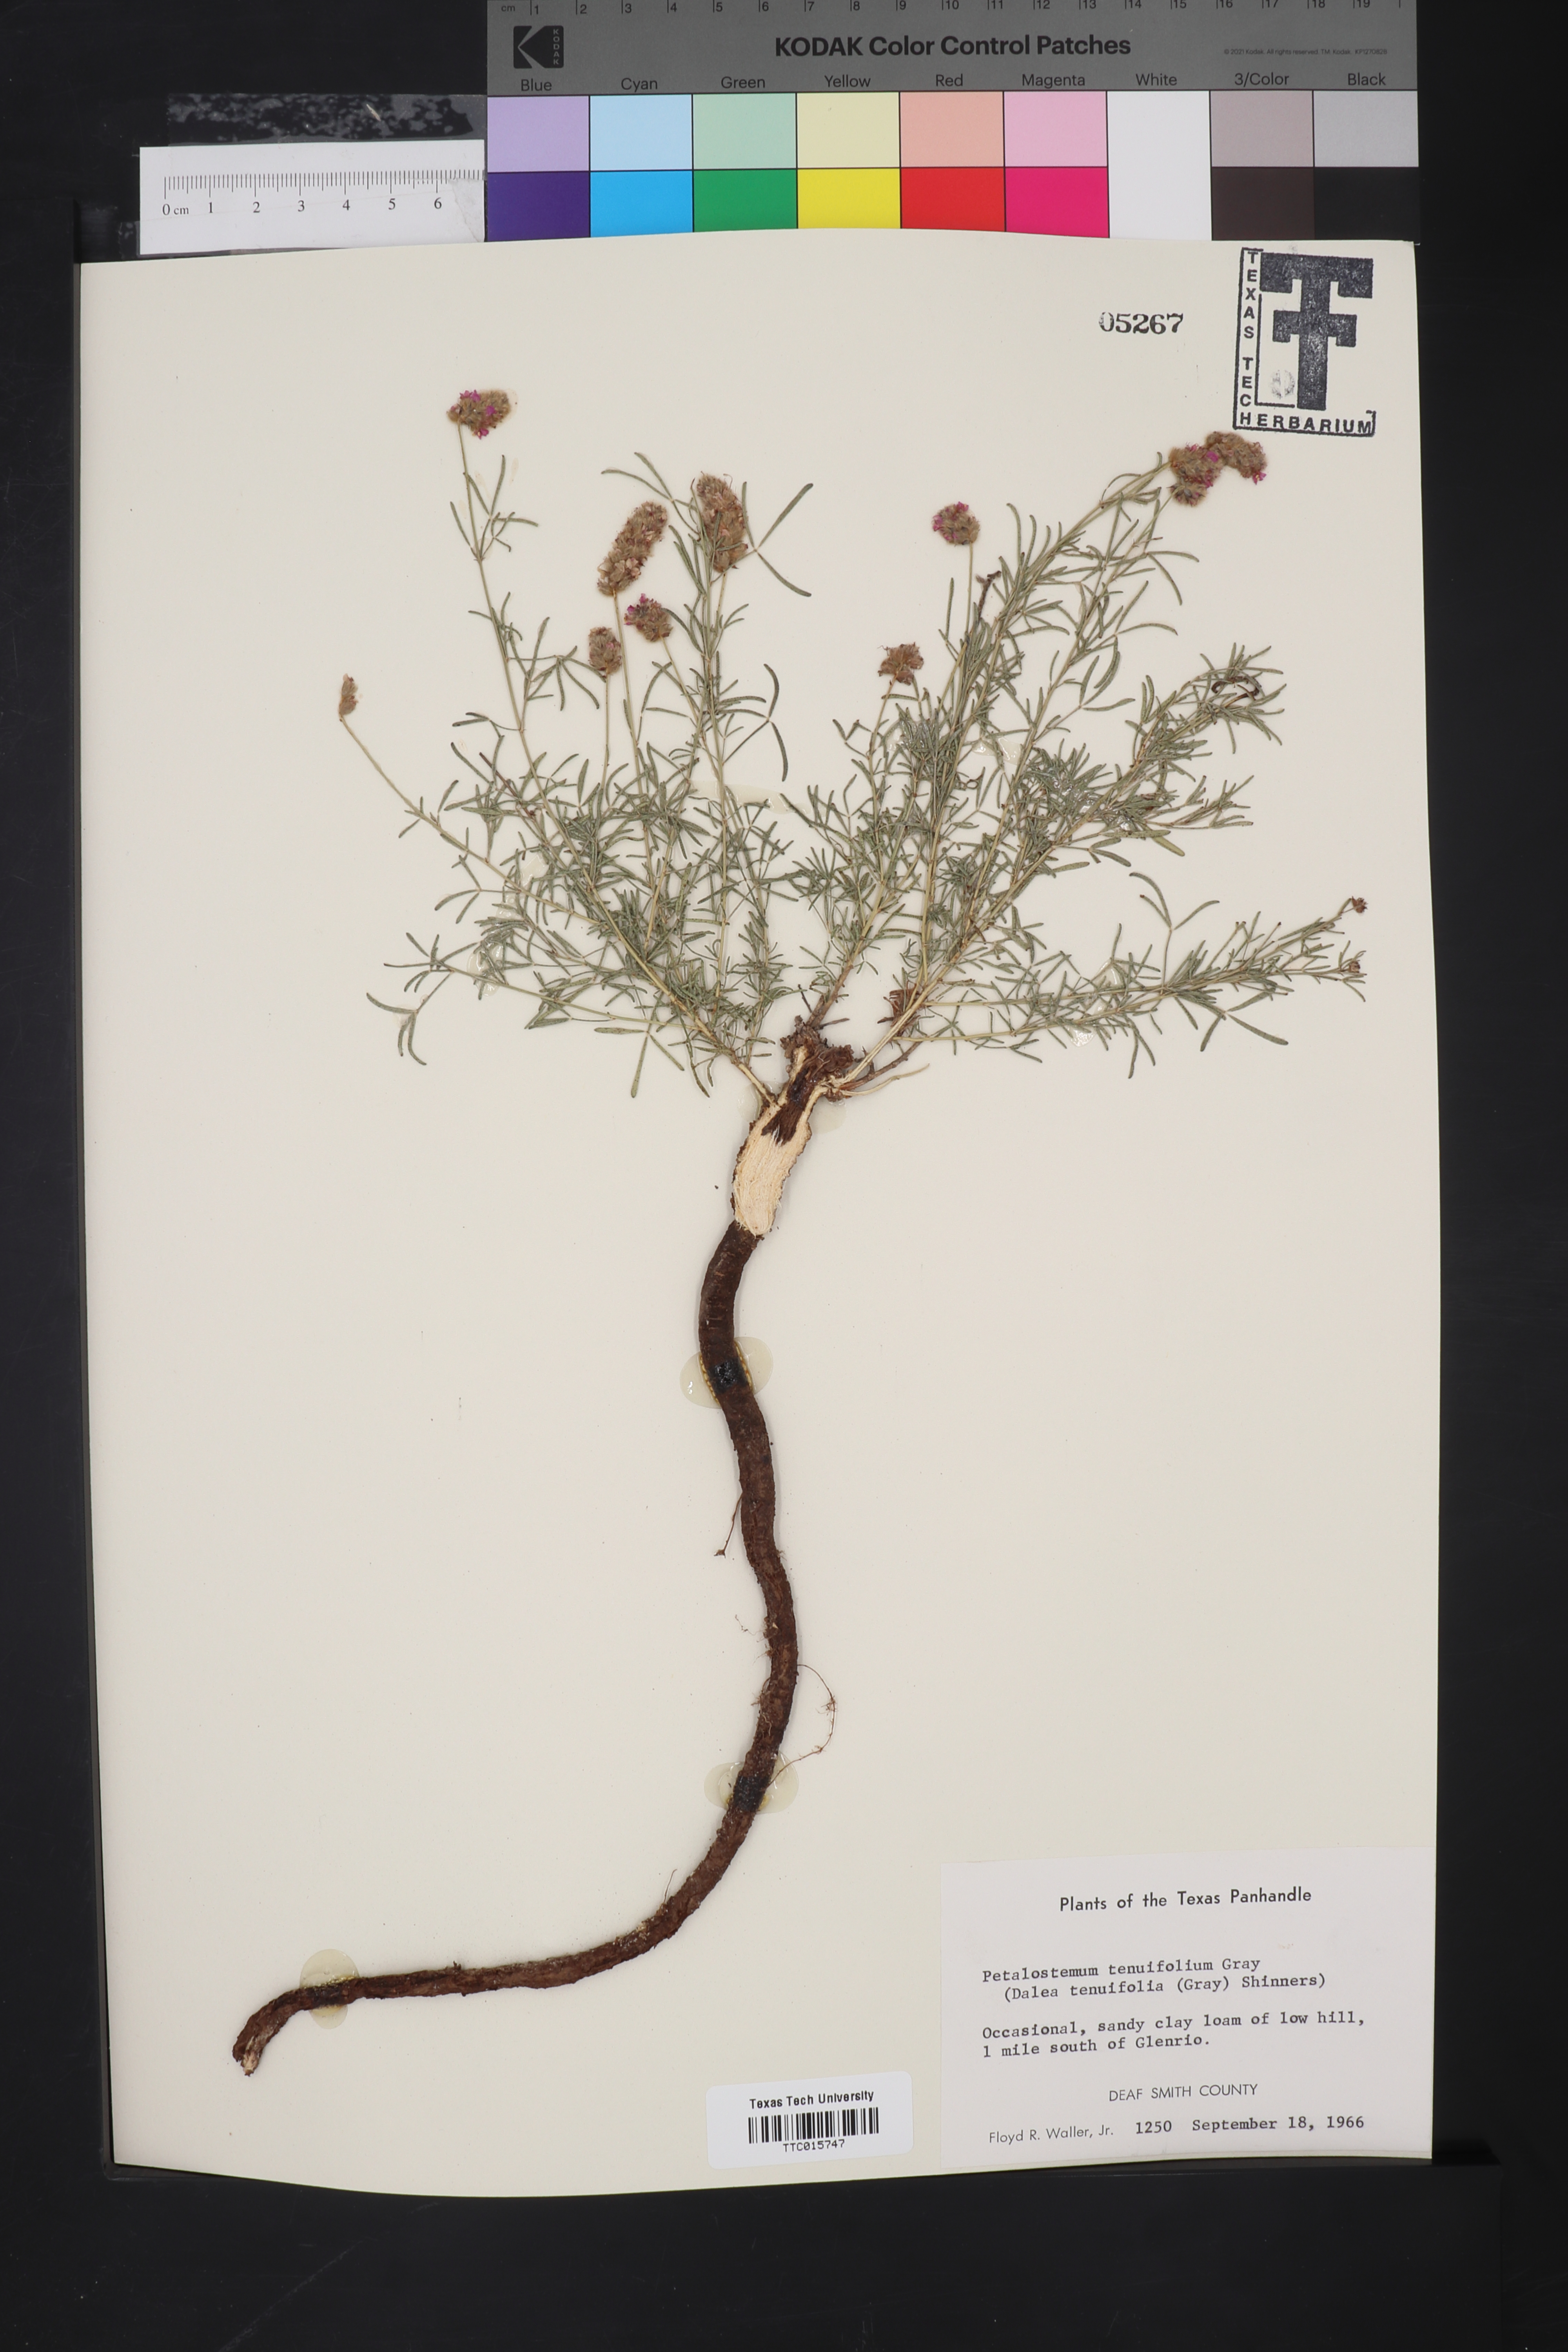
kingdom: Plantae
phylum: Tracheophyta
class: Magnoliopsida
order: Fabales
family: Fabaceae
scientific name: Fabaceae
